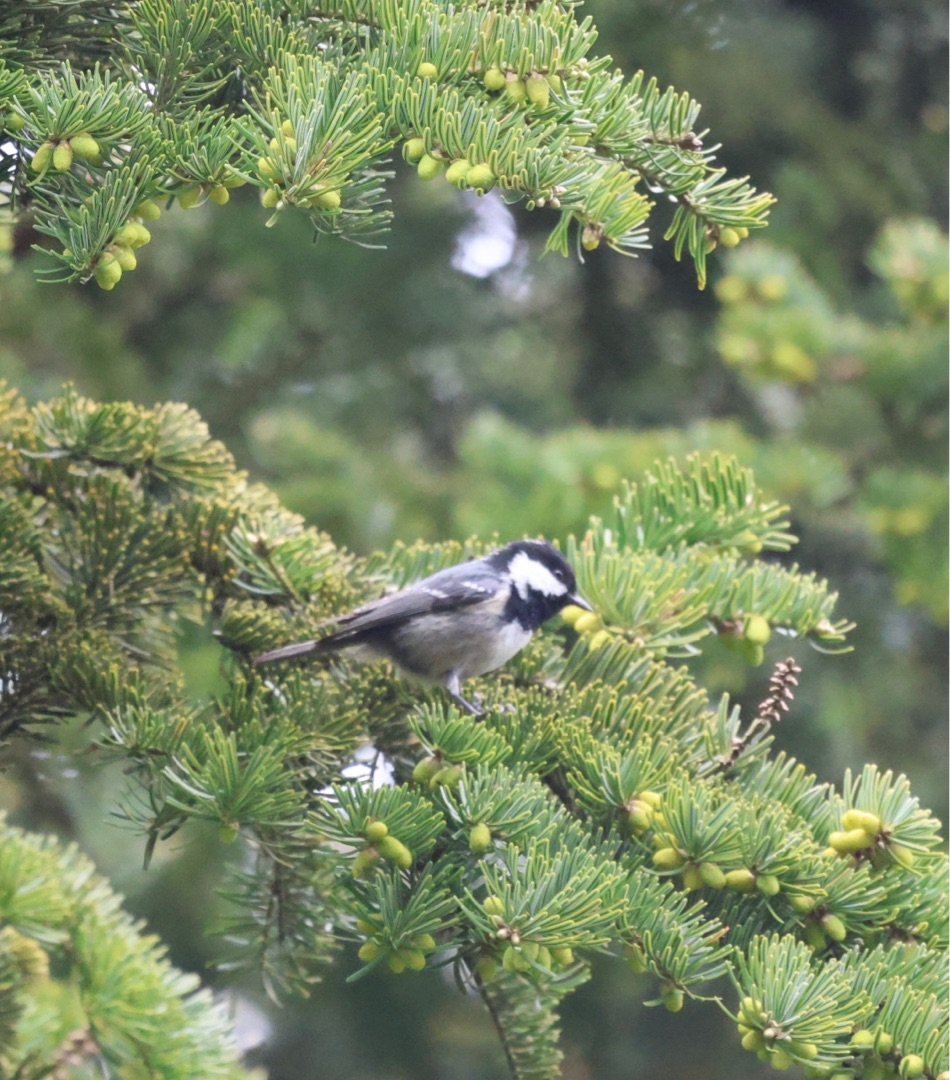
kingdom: Animalia
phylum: Chordata
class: Aves
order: Passeriformes
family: Paridae
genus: Periparus
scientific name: Periparus ater
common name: Sortmejse
